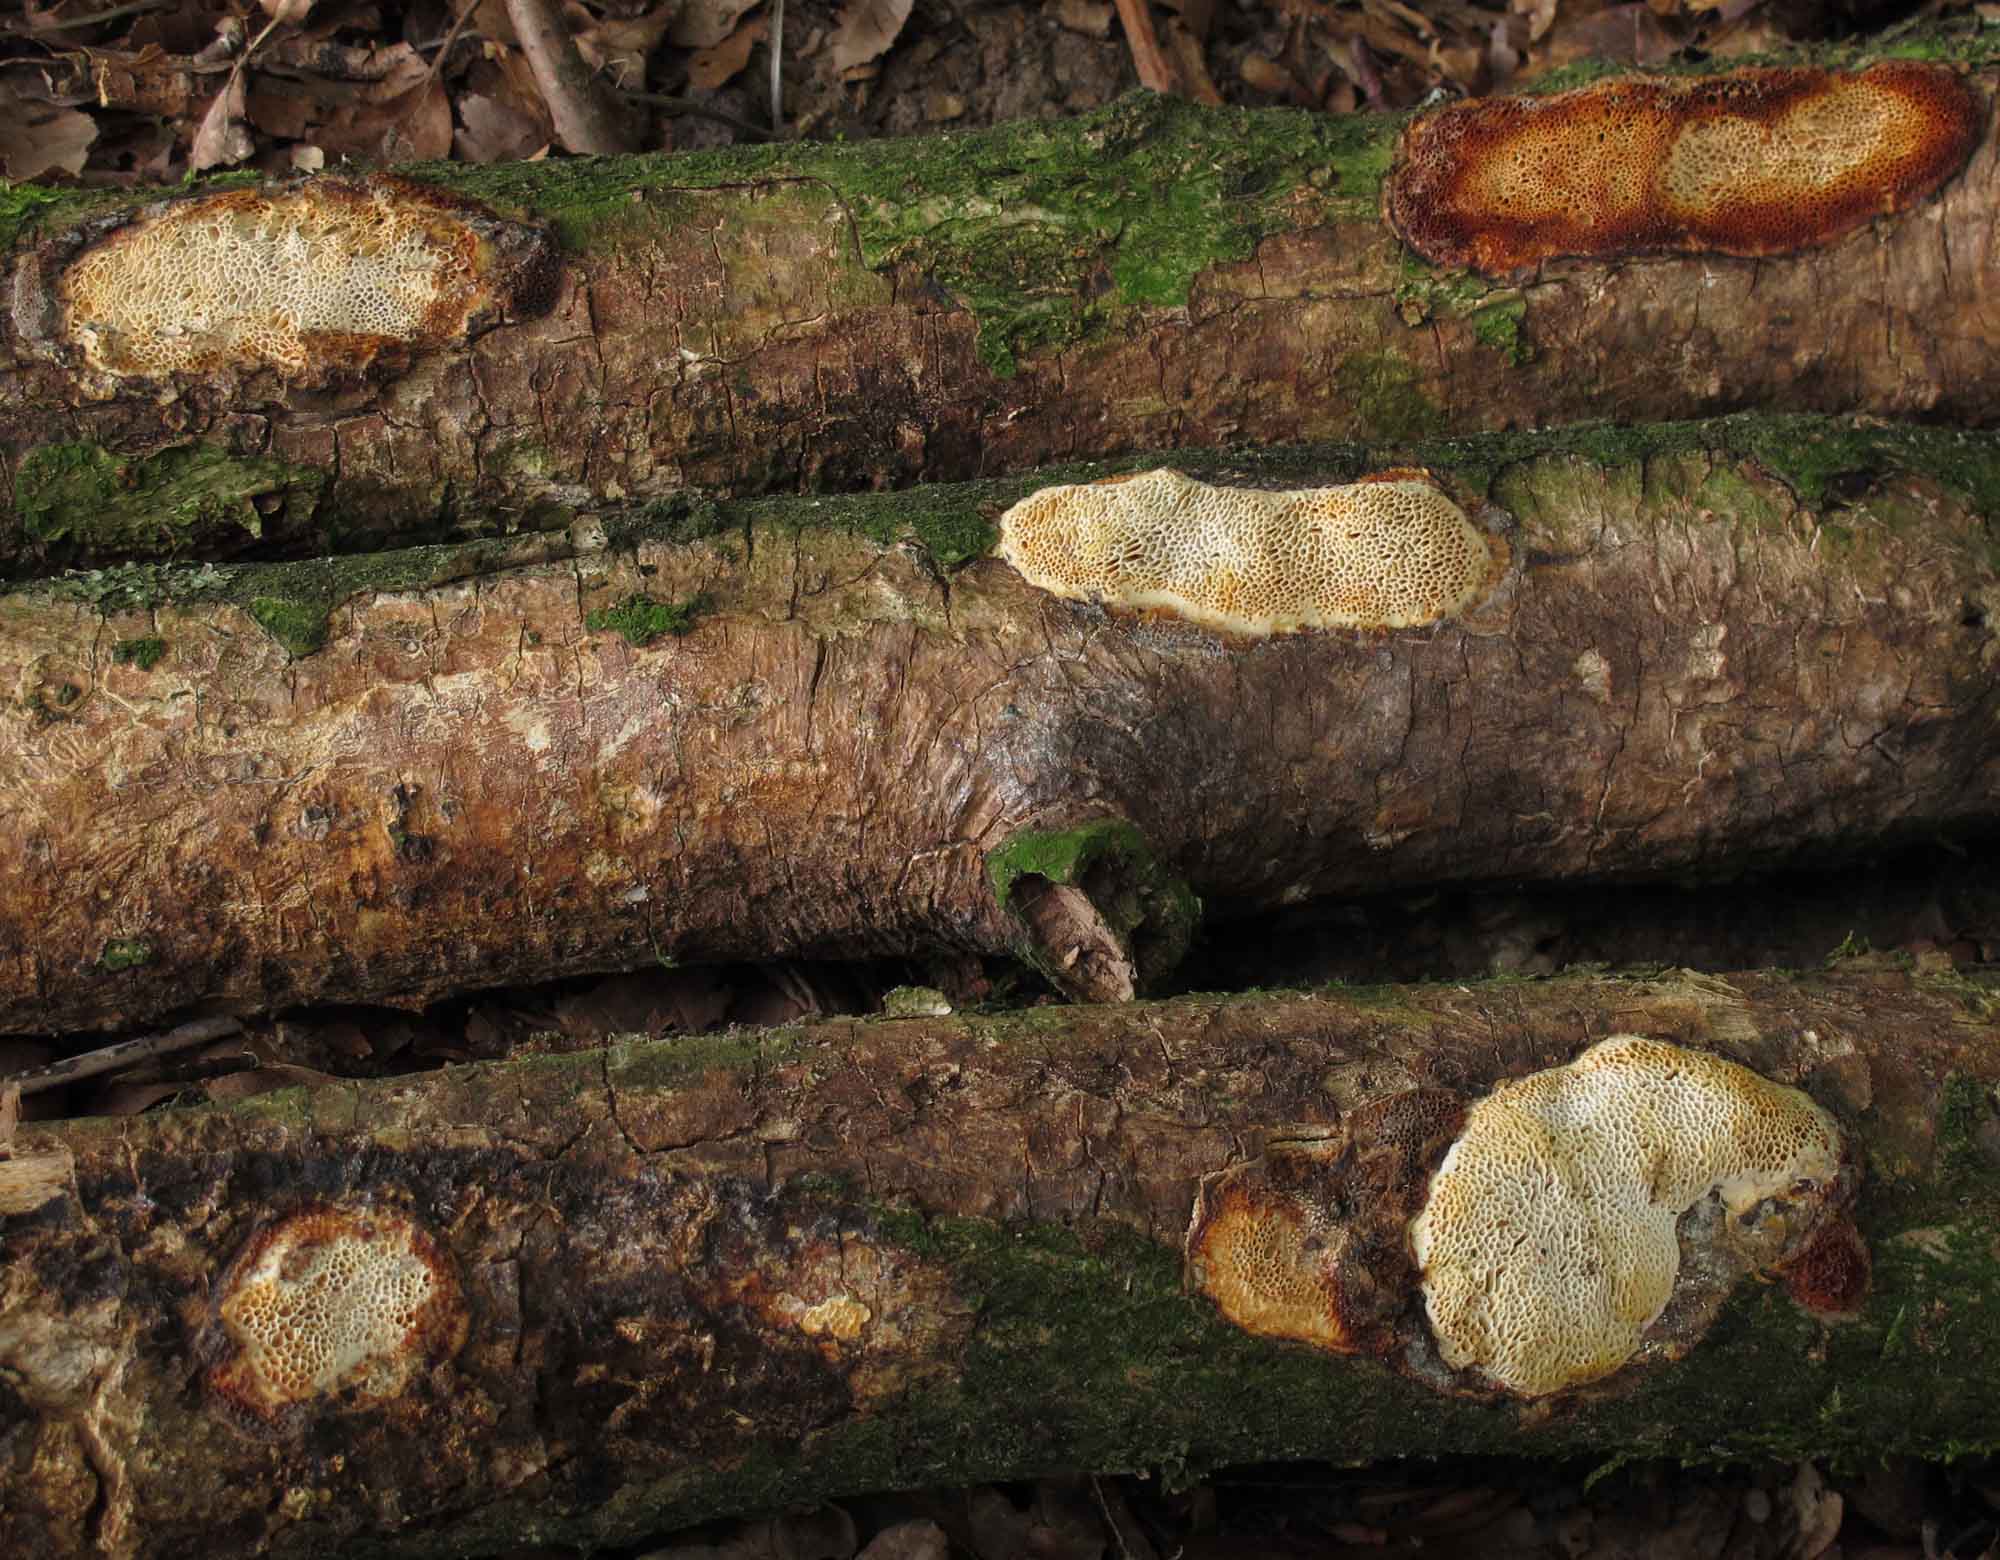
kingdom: Fungi
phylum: Basidiomycota
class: Agaricomycetes
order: Polyporales
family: Polyporaceae
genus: Szczepkamyces
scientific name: Szczepkamyces campestris
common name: hasselporesvamp
